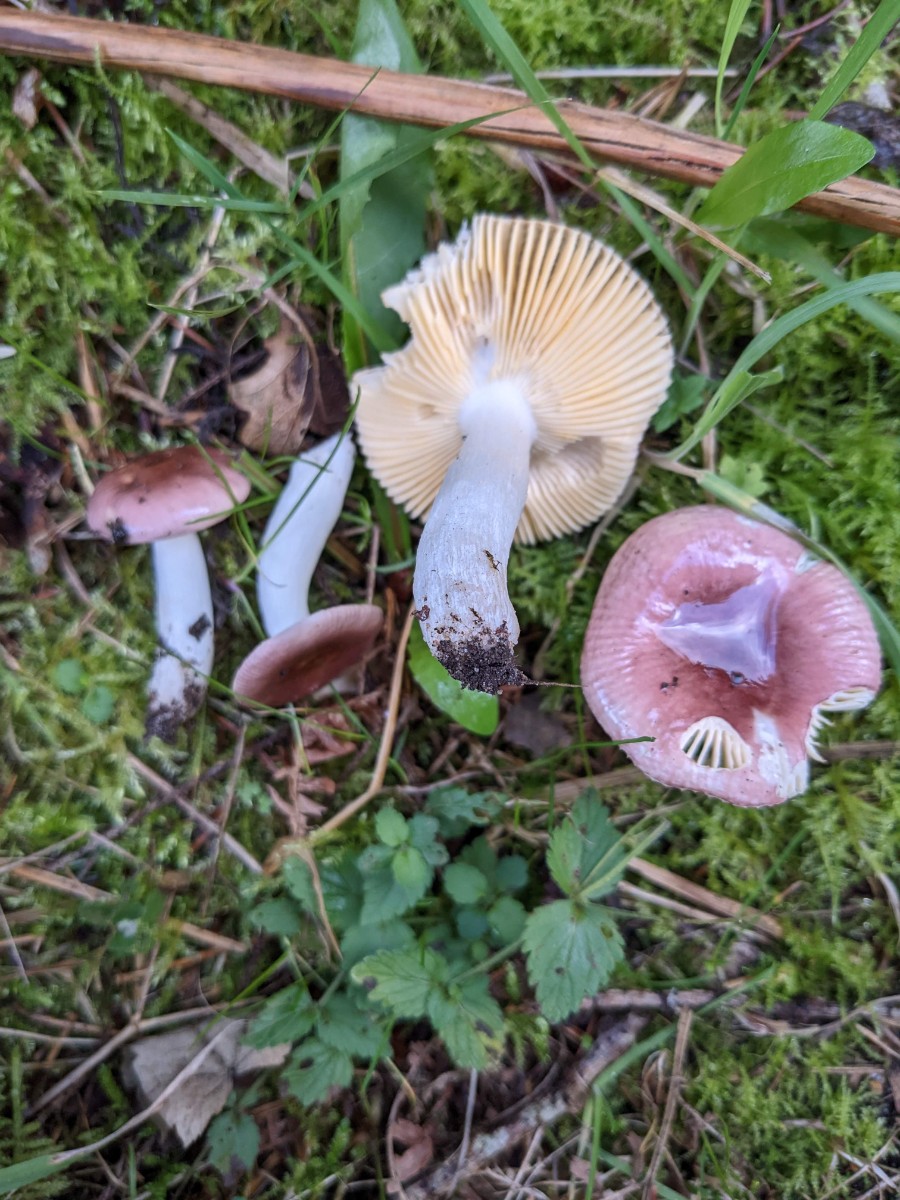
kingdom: Fungi
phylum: Basidiomycota
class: Agaricomycetes
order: Russulales
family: Russulaceae
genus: Russula
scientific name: Russula nauseosa
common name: spinkel skørhat
